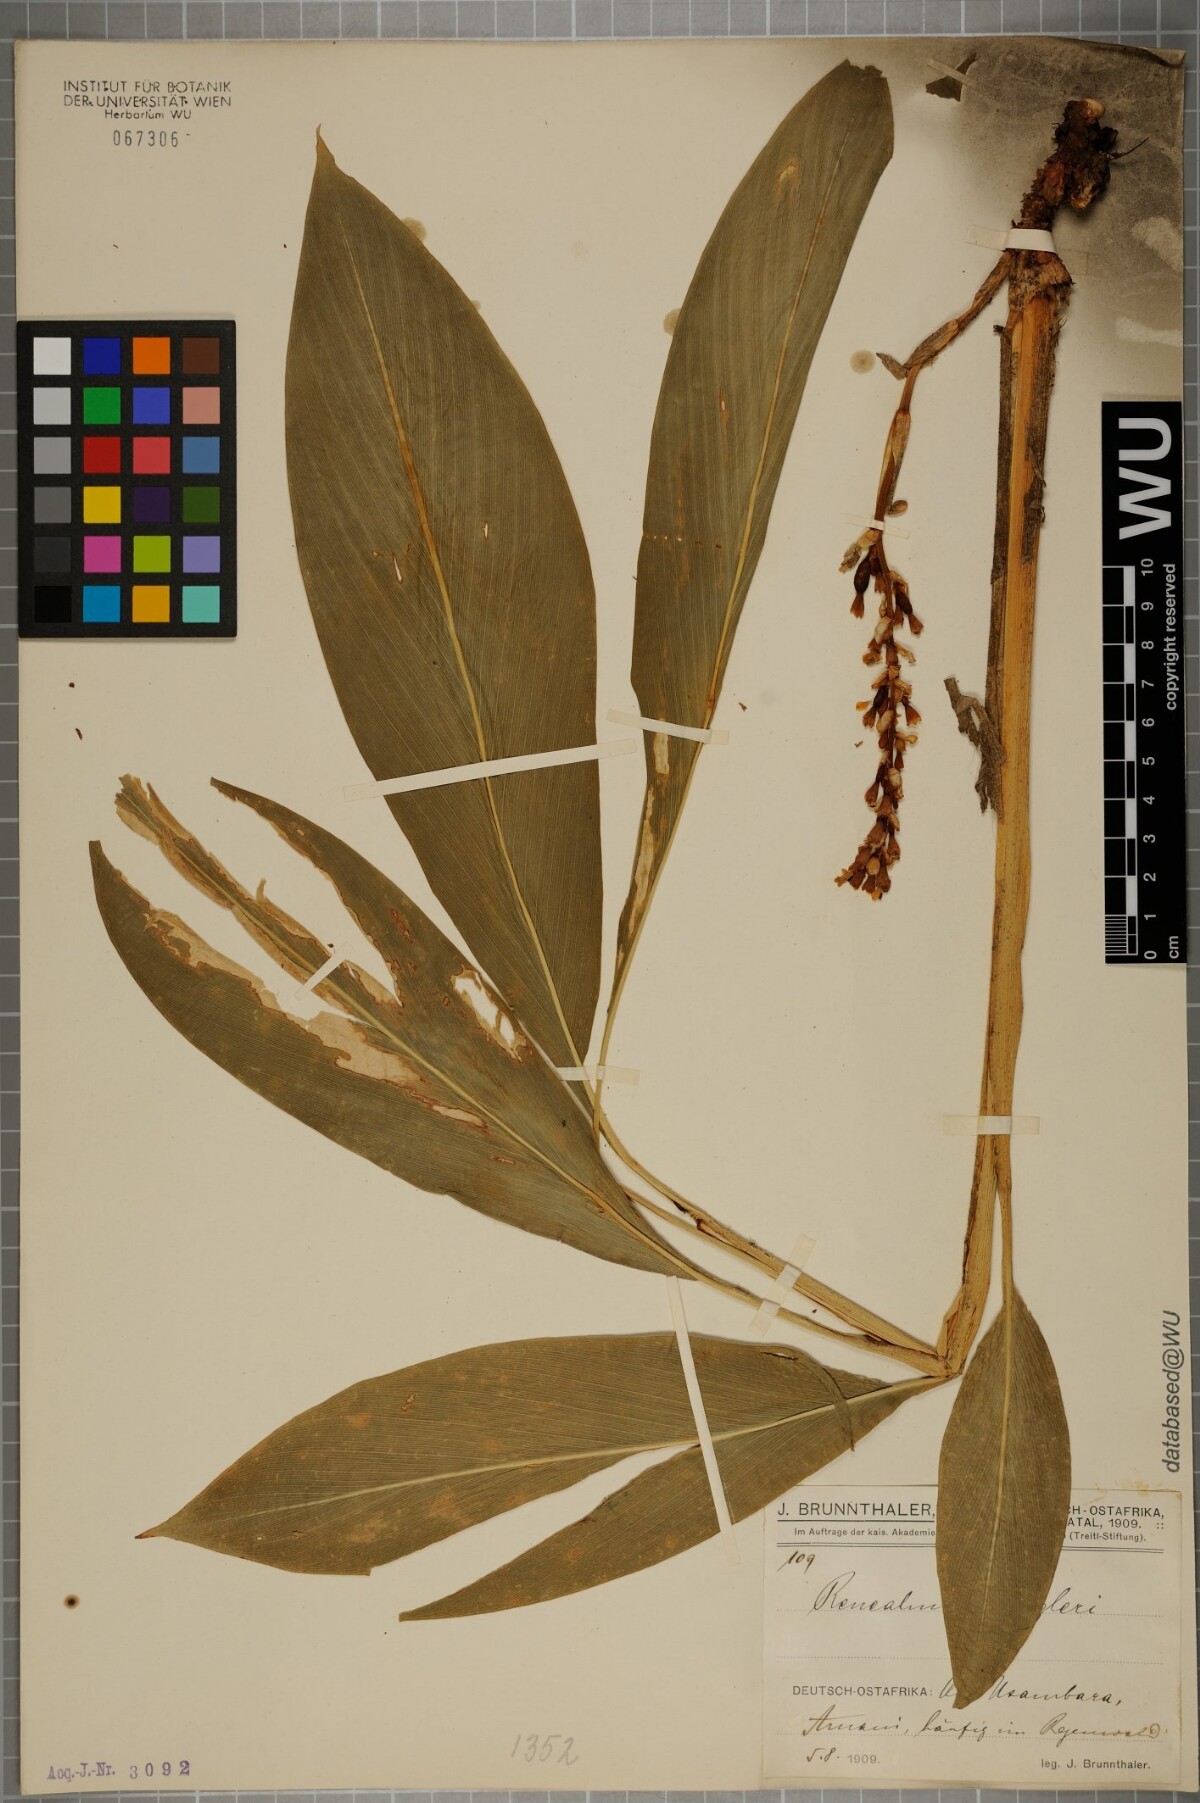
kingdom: Plantae
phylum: Tracheophyta
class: Liliopsida
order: Zingiberales
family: Zingiberaceae
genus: Renealmia
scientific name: Renealmia engleri
